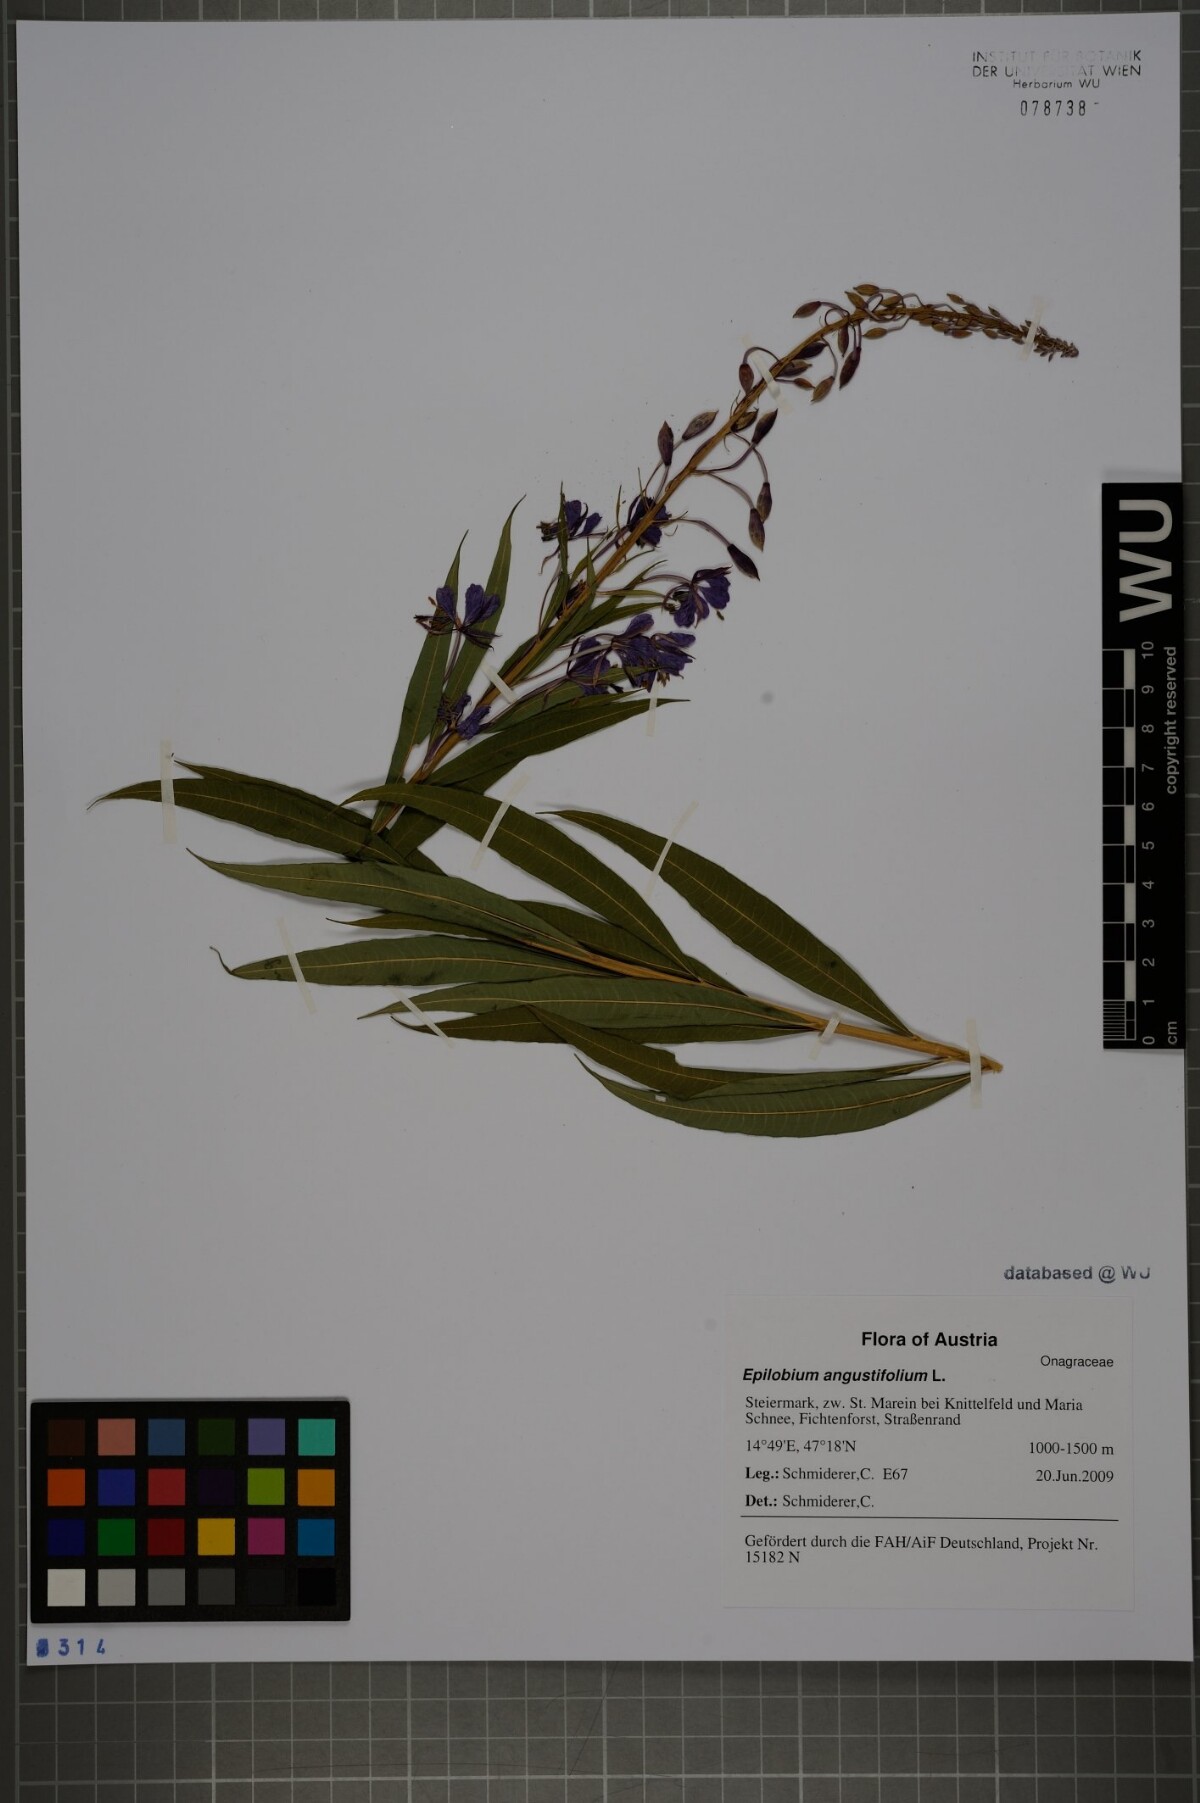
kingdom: Plantae
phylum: Tracheophyta
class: Magnoliopsida
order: Myrtales
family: Onagraceae
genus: Chamaenerion
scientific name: Chamaenerion angustifolium
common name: Fireweed
